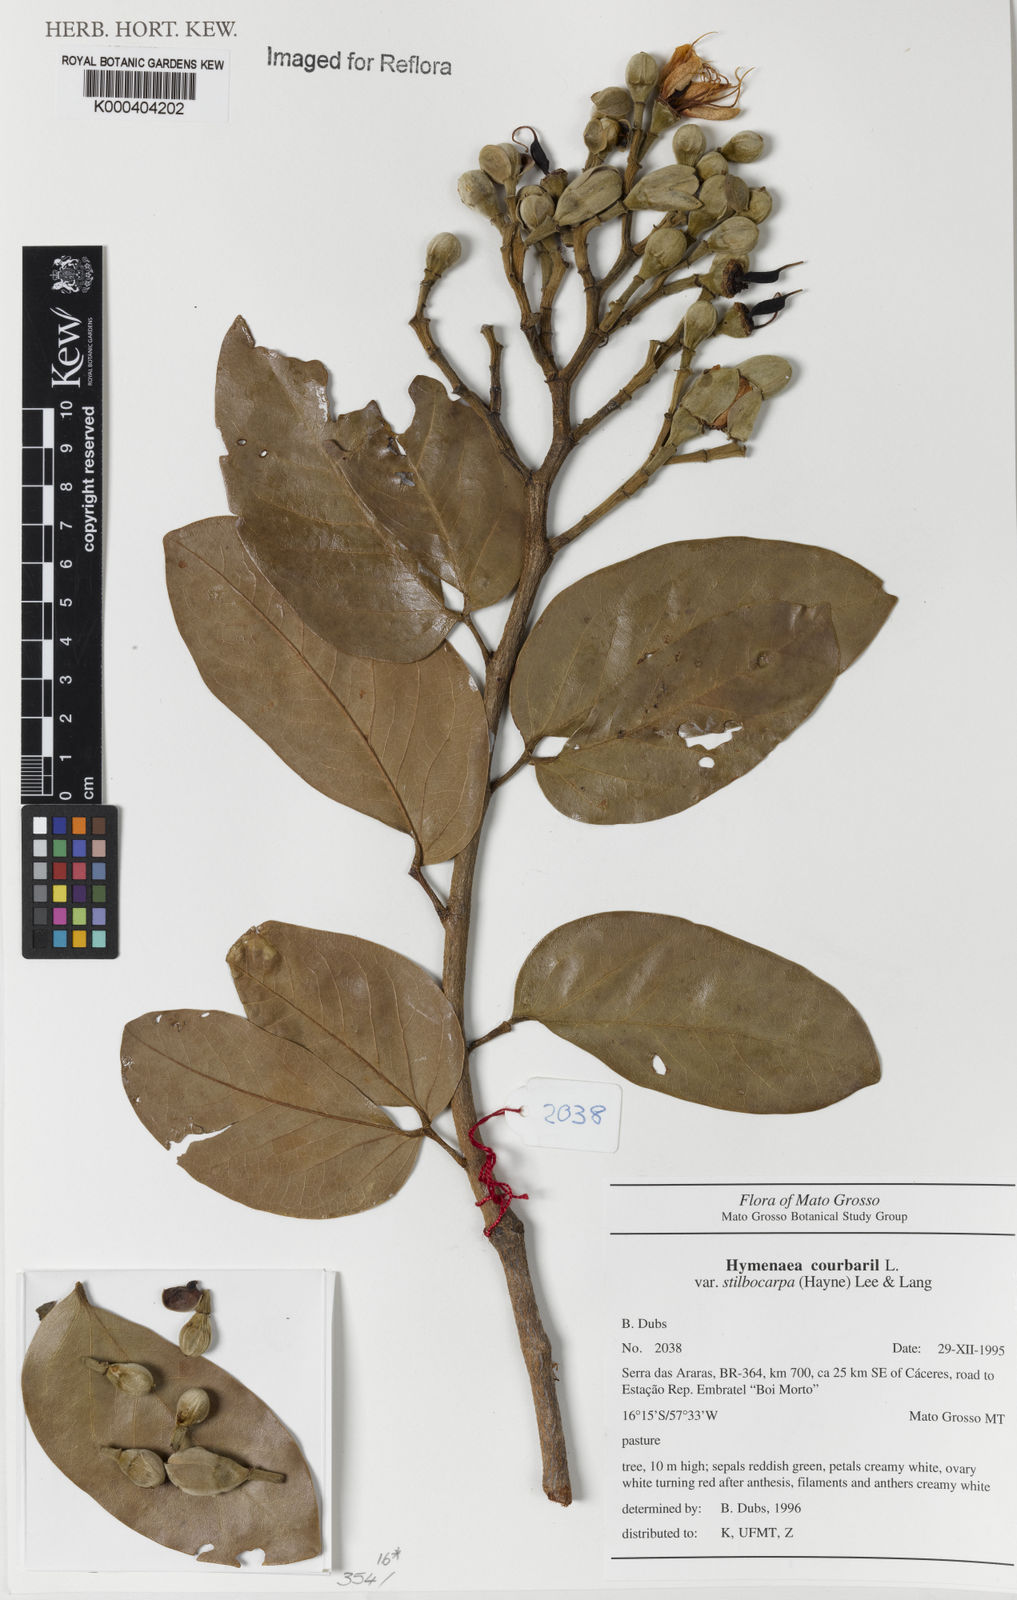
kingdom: Plantae
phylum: Tracheophyta
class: Magnoliopsida
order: Fabales
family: Fabaceae
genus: Hymenaea
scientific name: Hymenaea courbaril
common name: Brazilian copal
